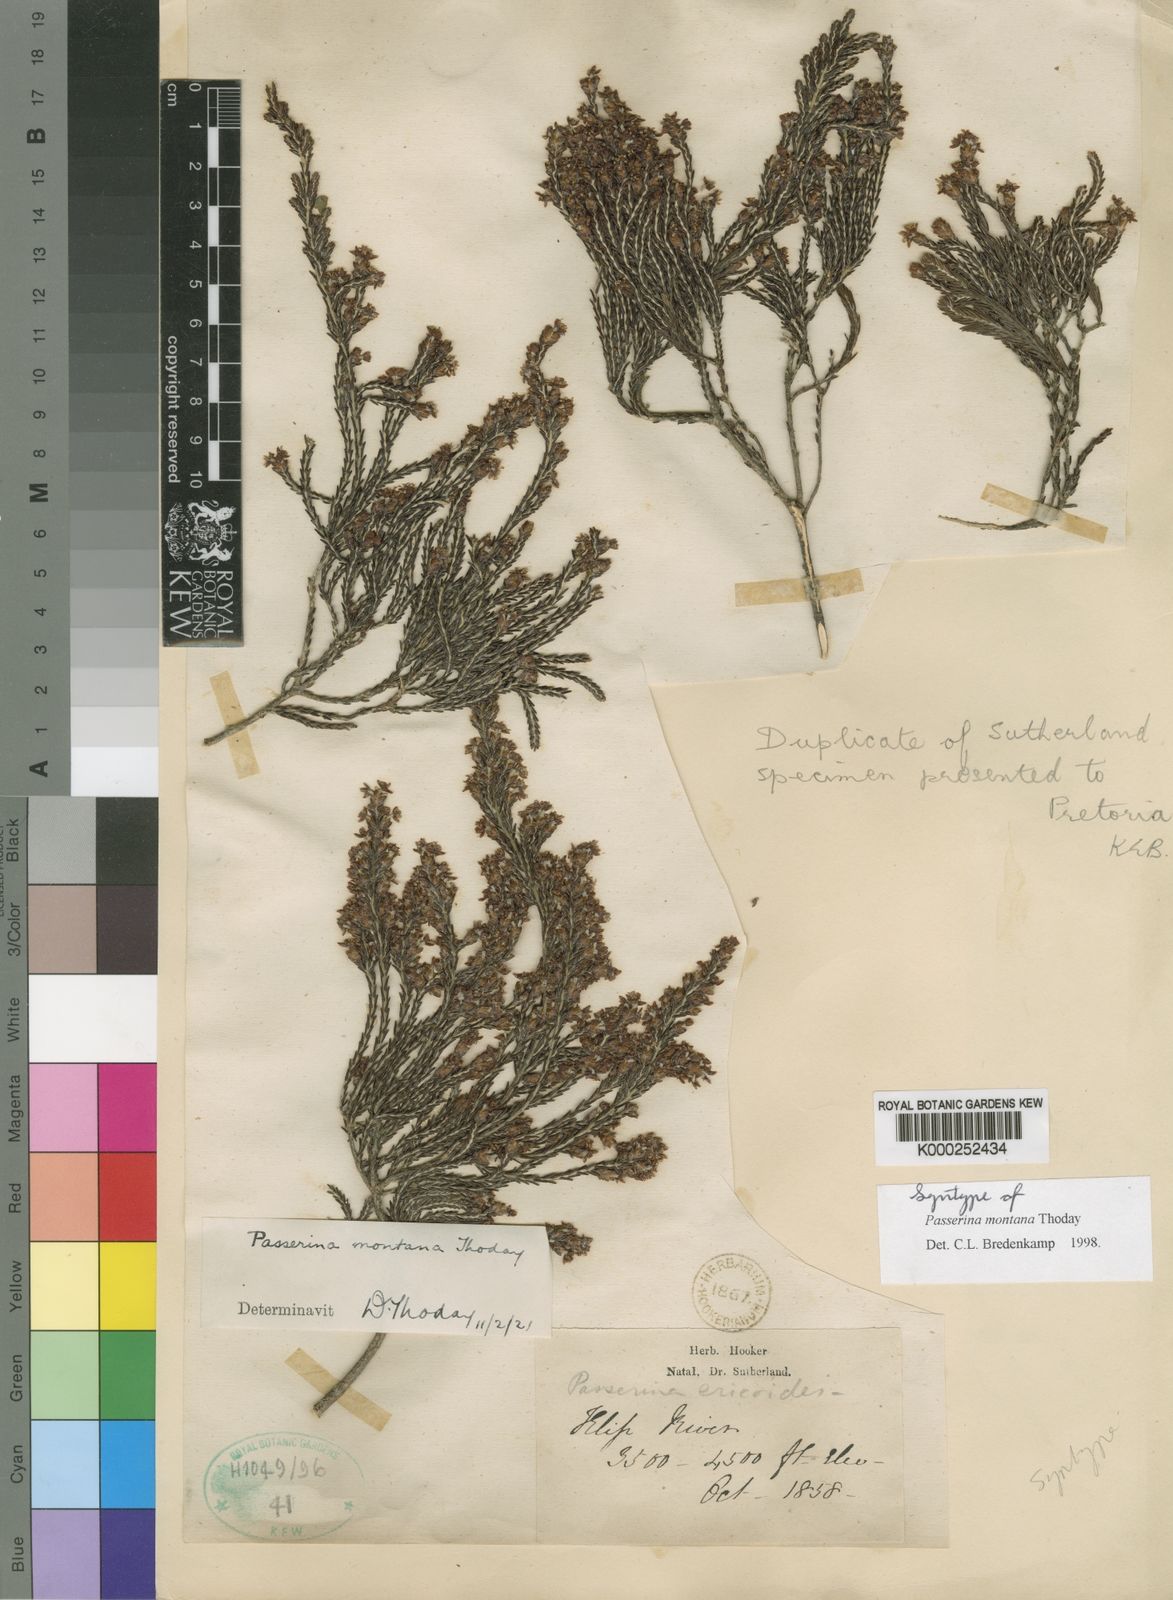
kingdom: Plantae
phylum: Tracheophyta
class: Magnoliopsida
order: Malvales
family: Thymelaeaceae
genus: Passerina
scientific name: Passerina montana
